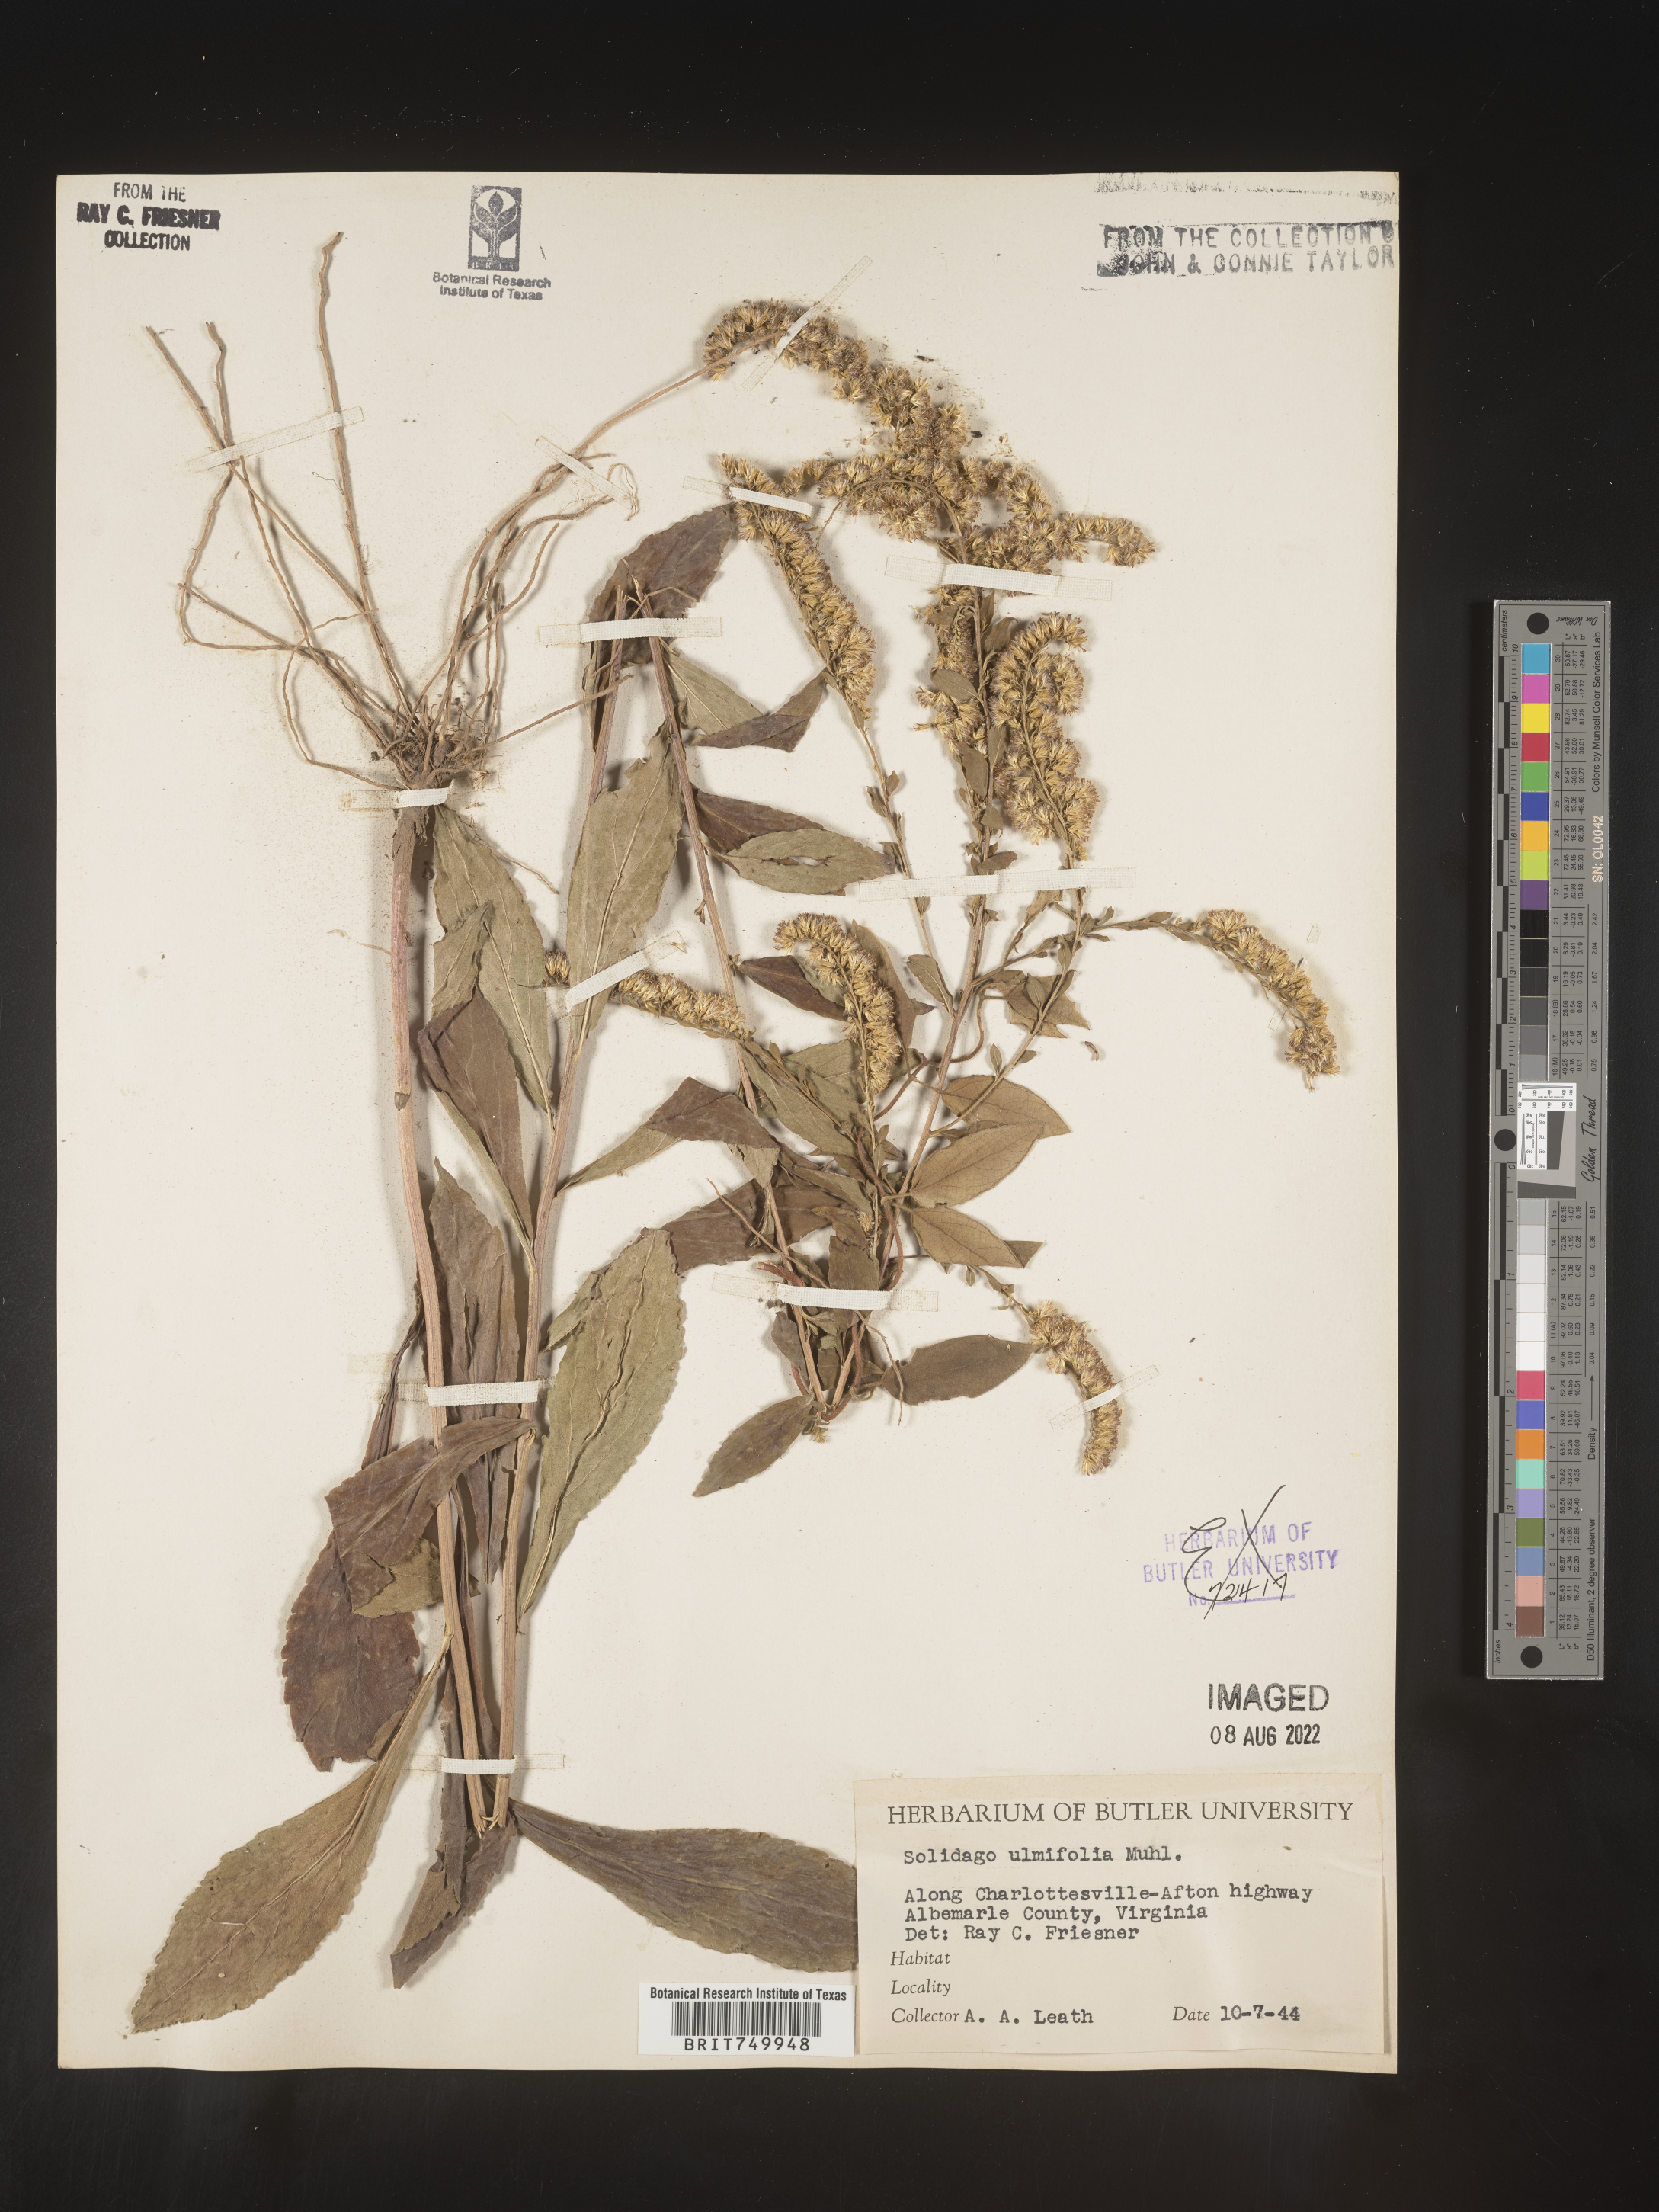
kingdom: Plantae
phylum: Tracheophyta
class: Magnoliopsida
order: Asterales
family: Asteraceae
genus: Solidago
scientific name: Solidago ulmifolia
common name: Elm-leaf goldenrod
